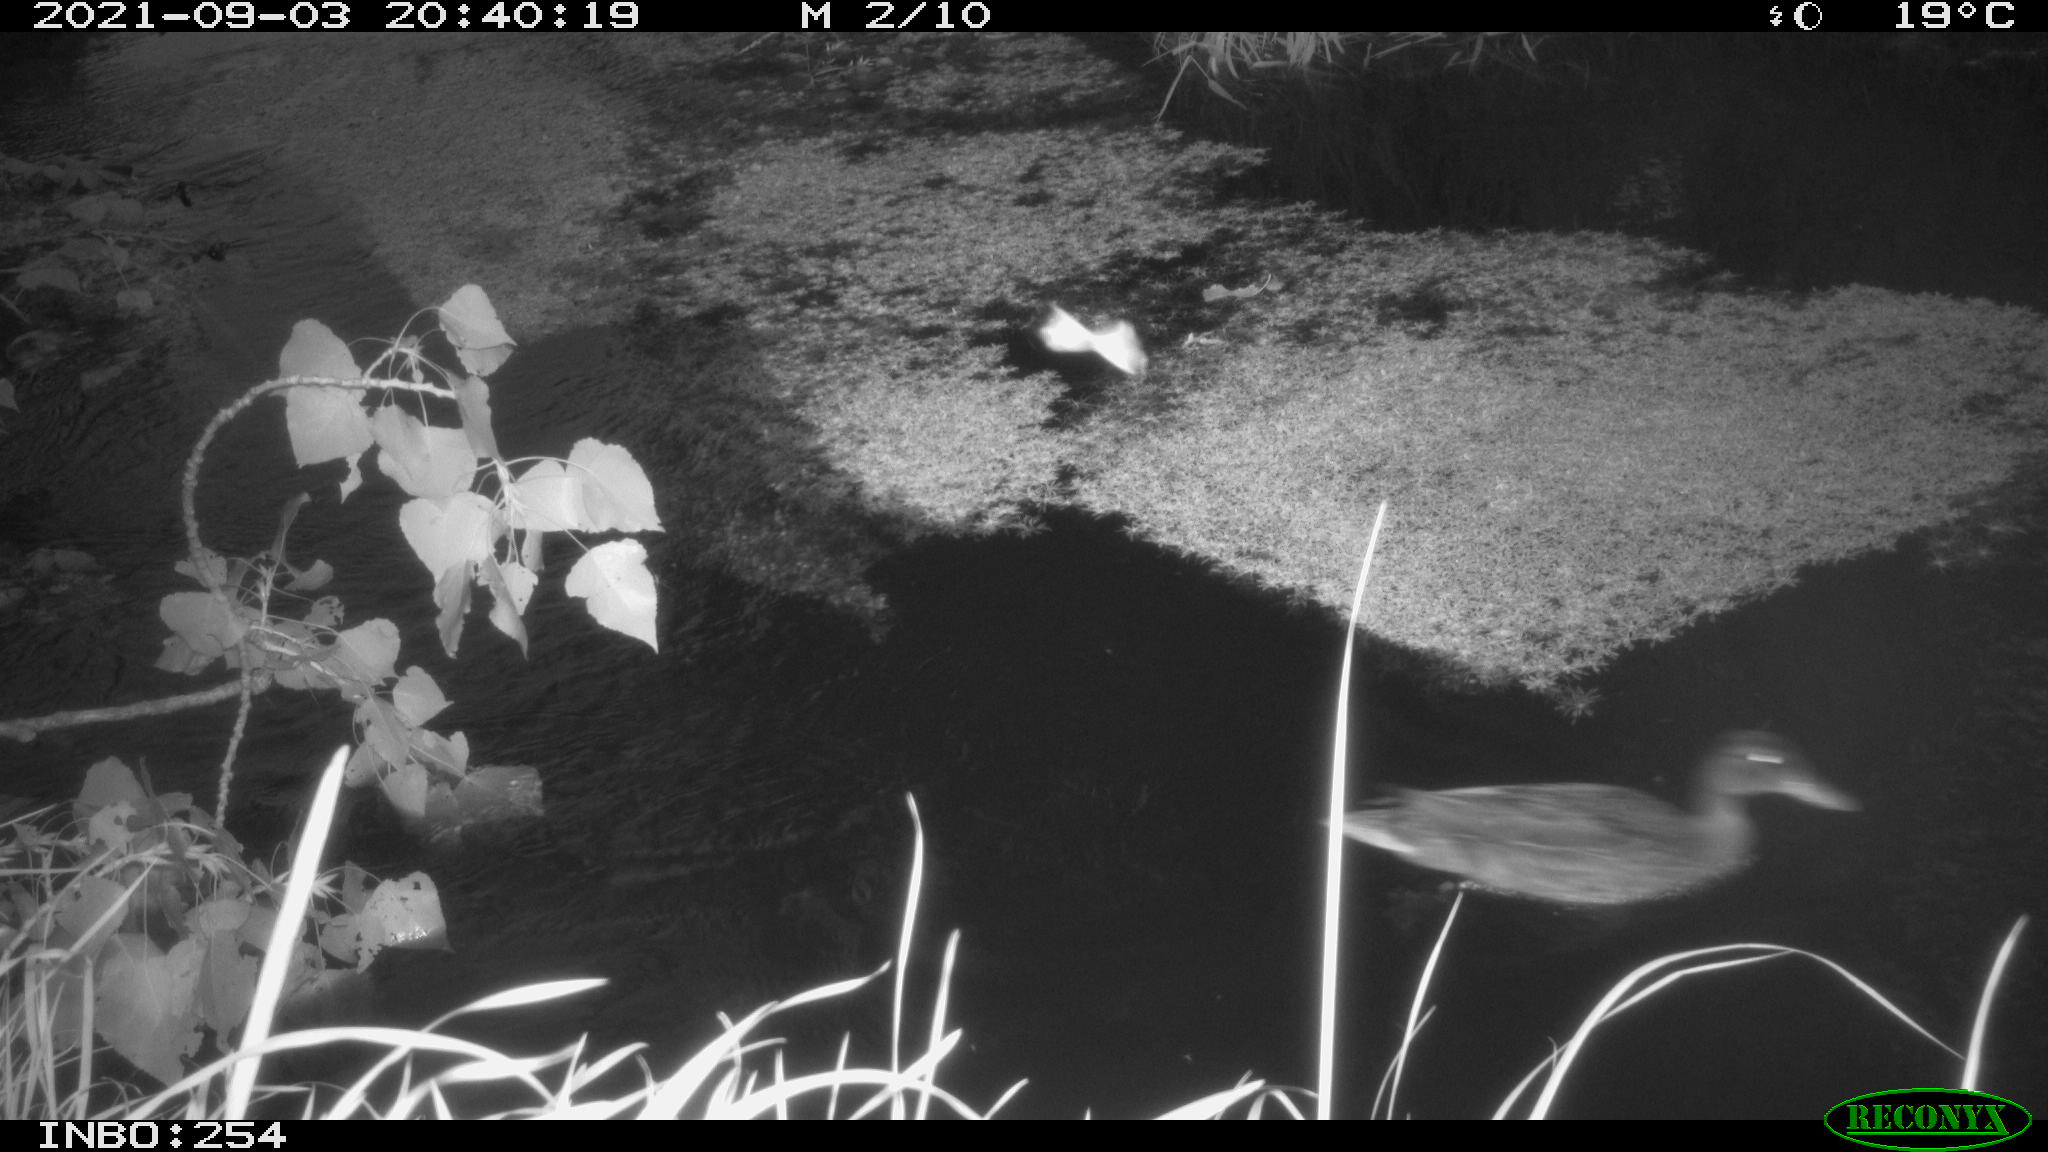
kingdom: Animalia
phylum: Chordata
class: Aves
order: Anseriformes
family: Anatidae
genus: Anas
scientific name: Anas platyrhynchos
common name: Mallard
